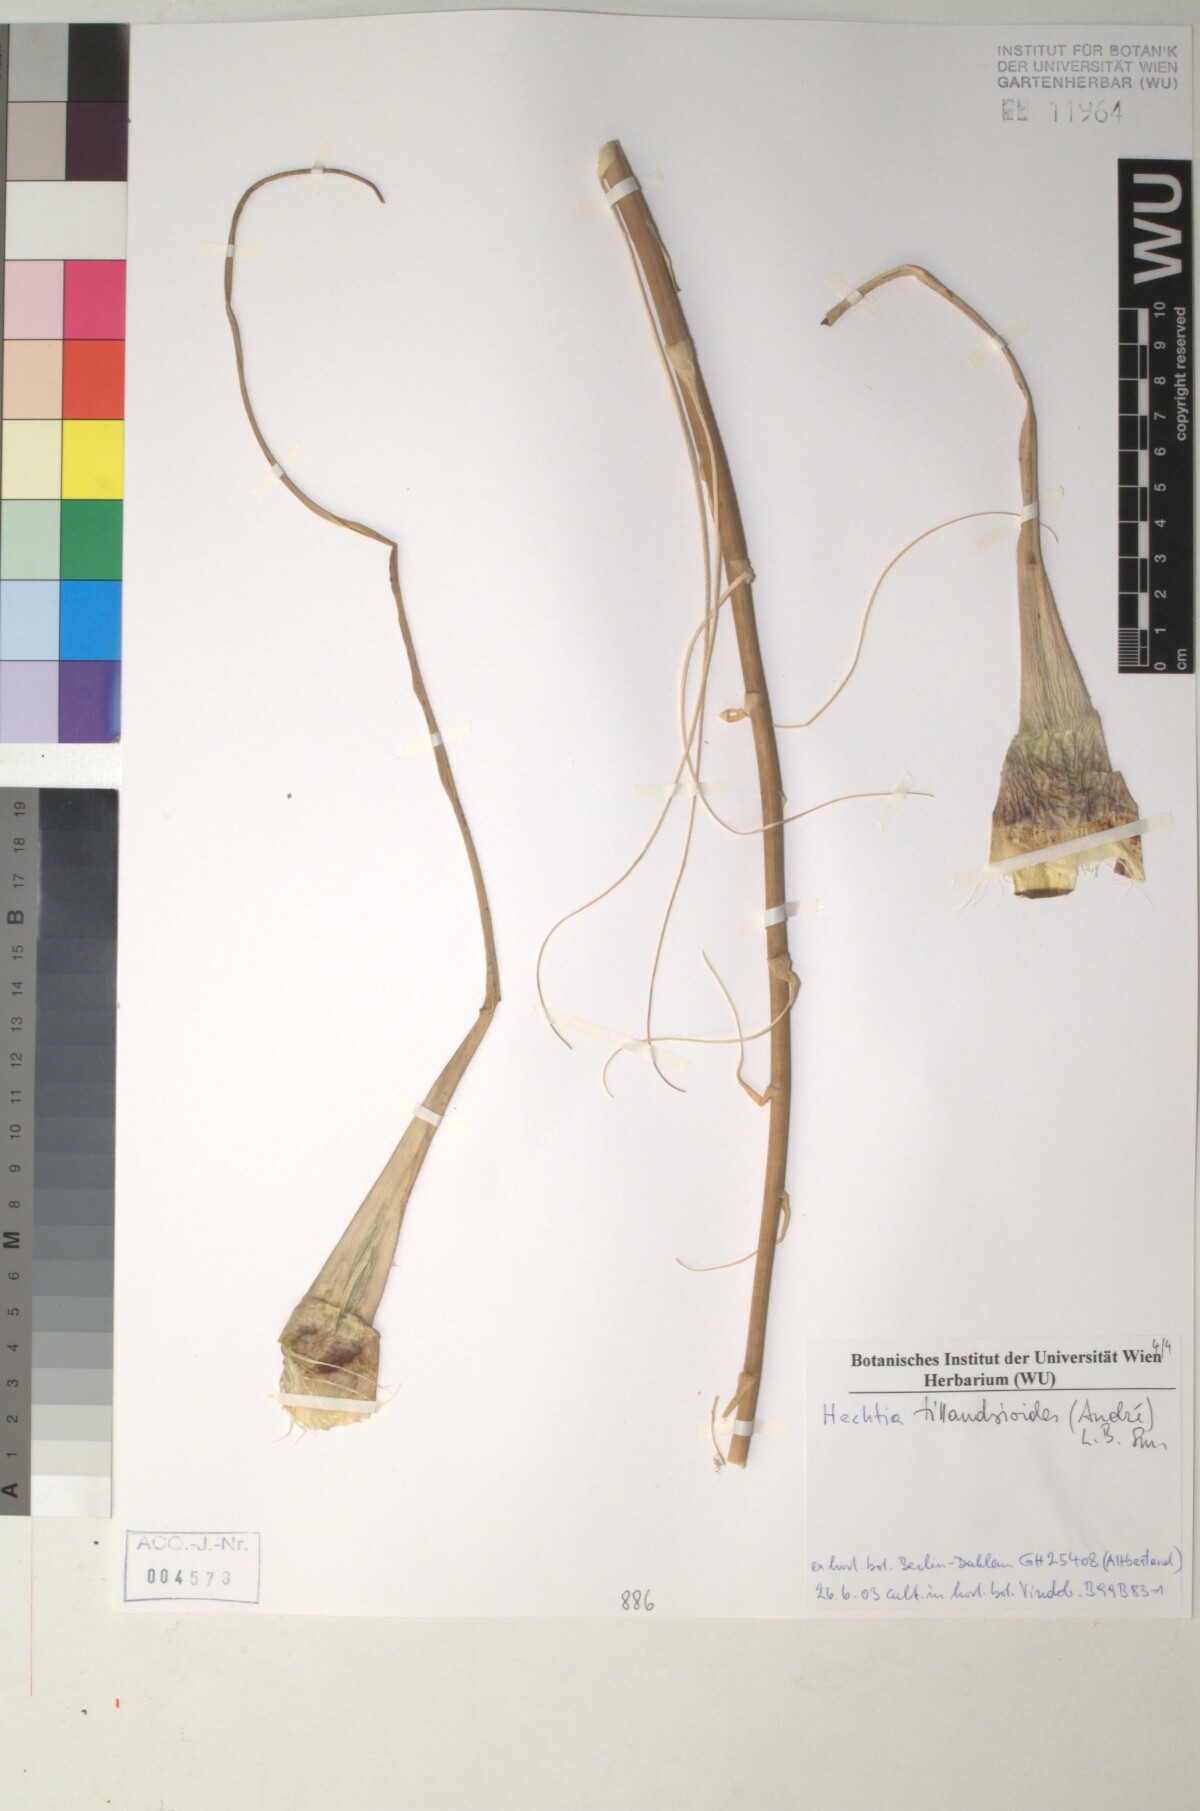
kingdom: Plantae
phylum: Tracheophyta
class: Liliopsida
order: Poales
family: Bromeliaceae
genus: Hechtia
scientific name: Hechtia
